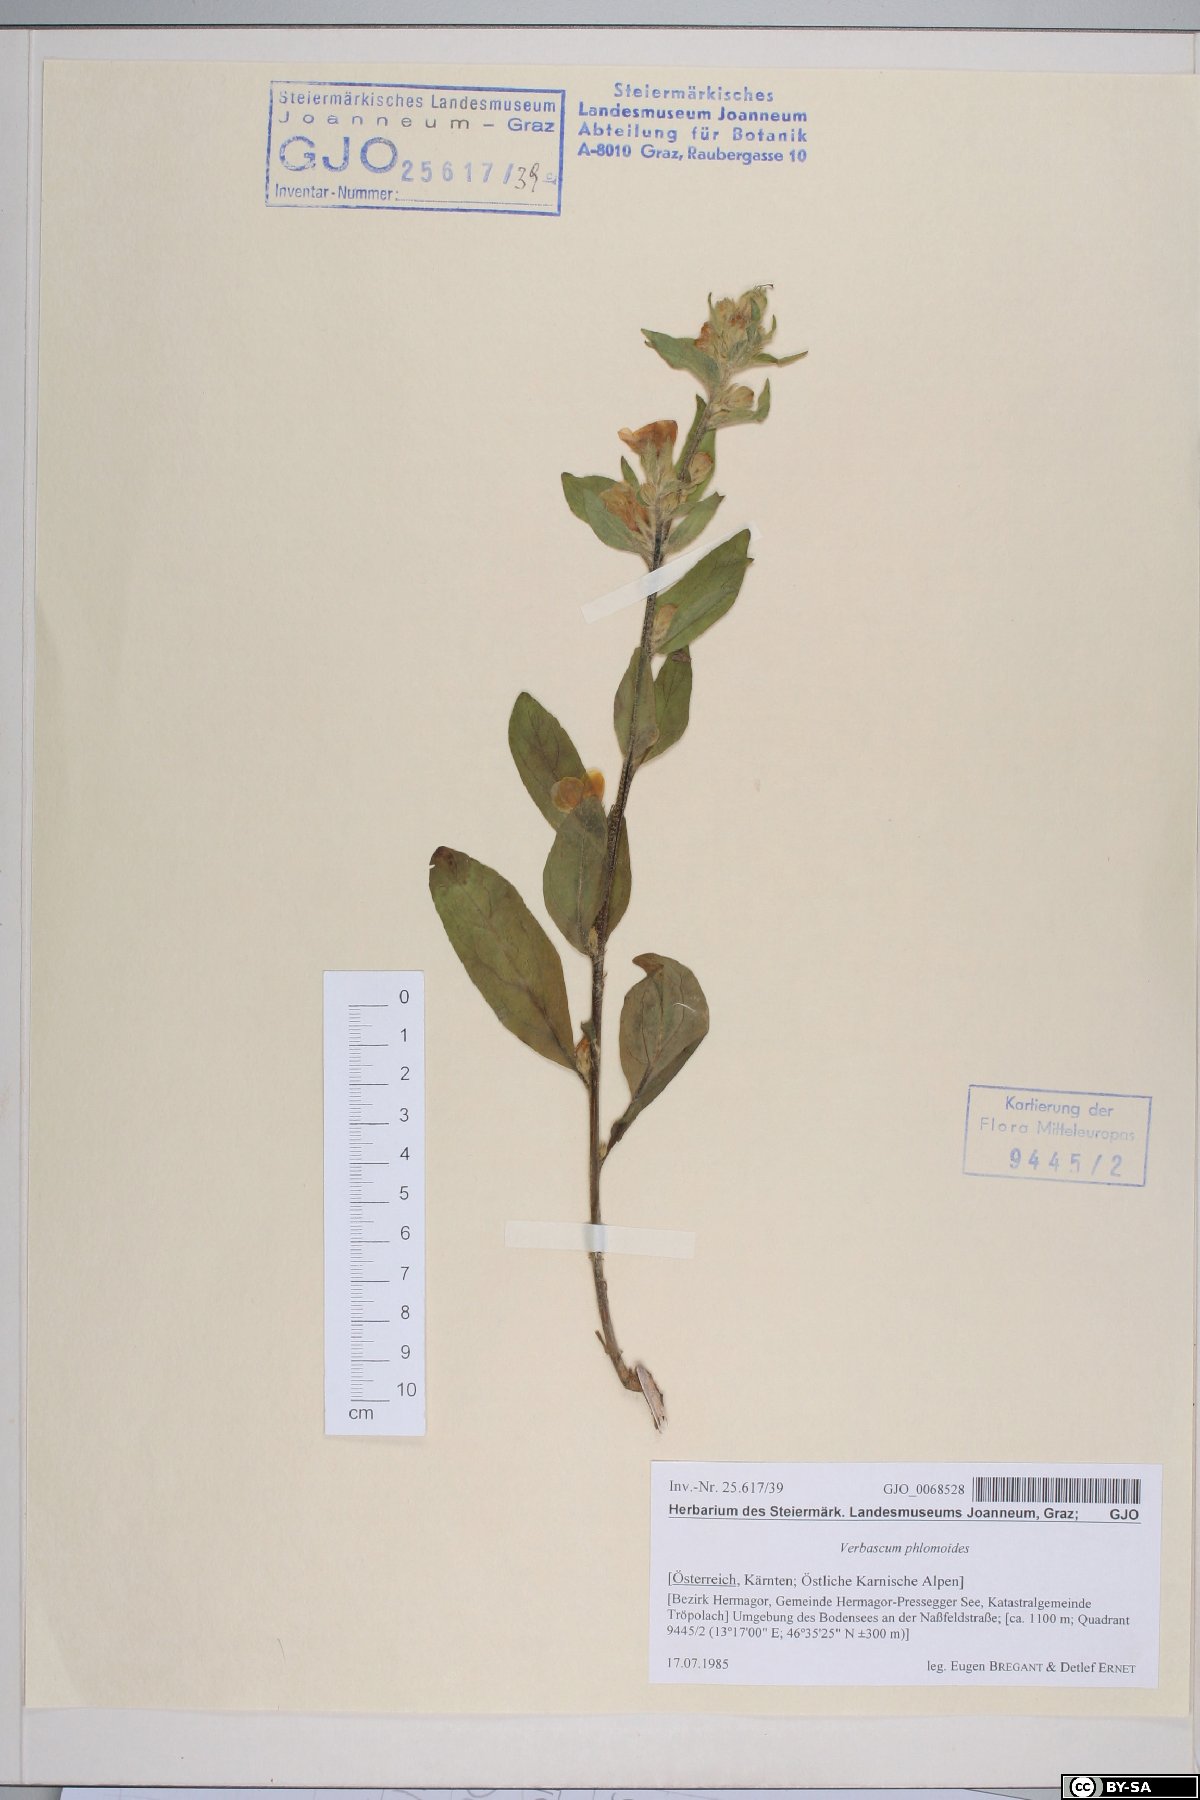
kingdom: Plantae
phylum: Tracheophyta
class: Magnoliopsida
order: Lamiales
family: Scrophulariaceae
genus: Verbascum
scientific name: Verbascum phlomoides
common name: Orange mullein
